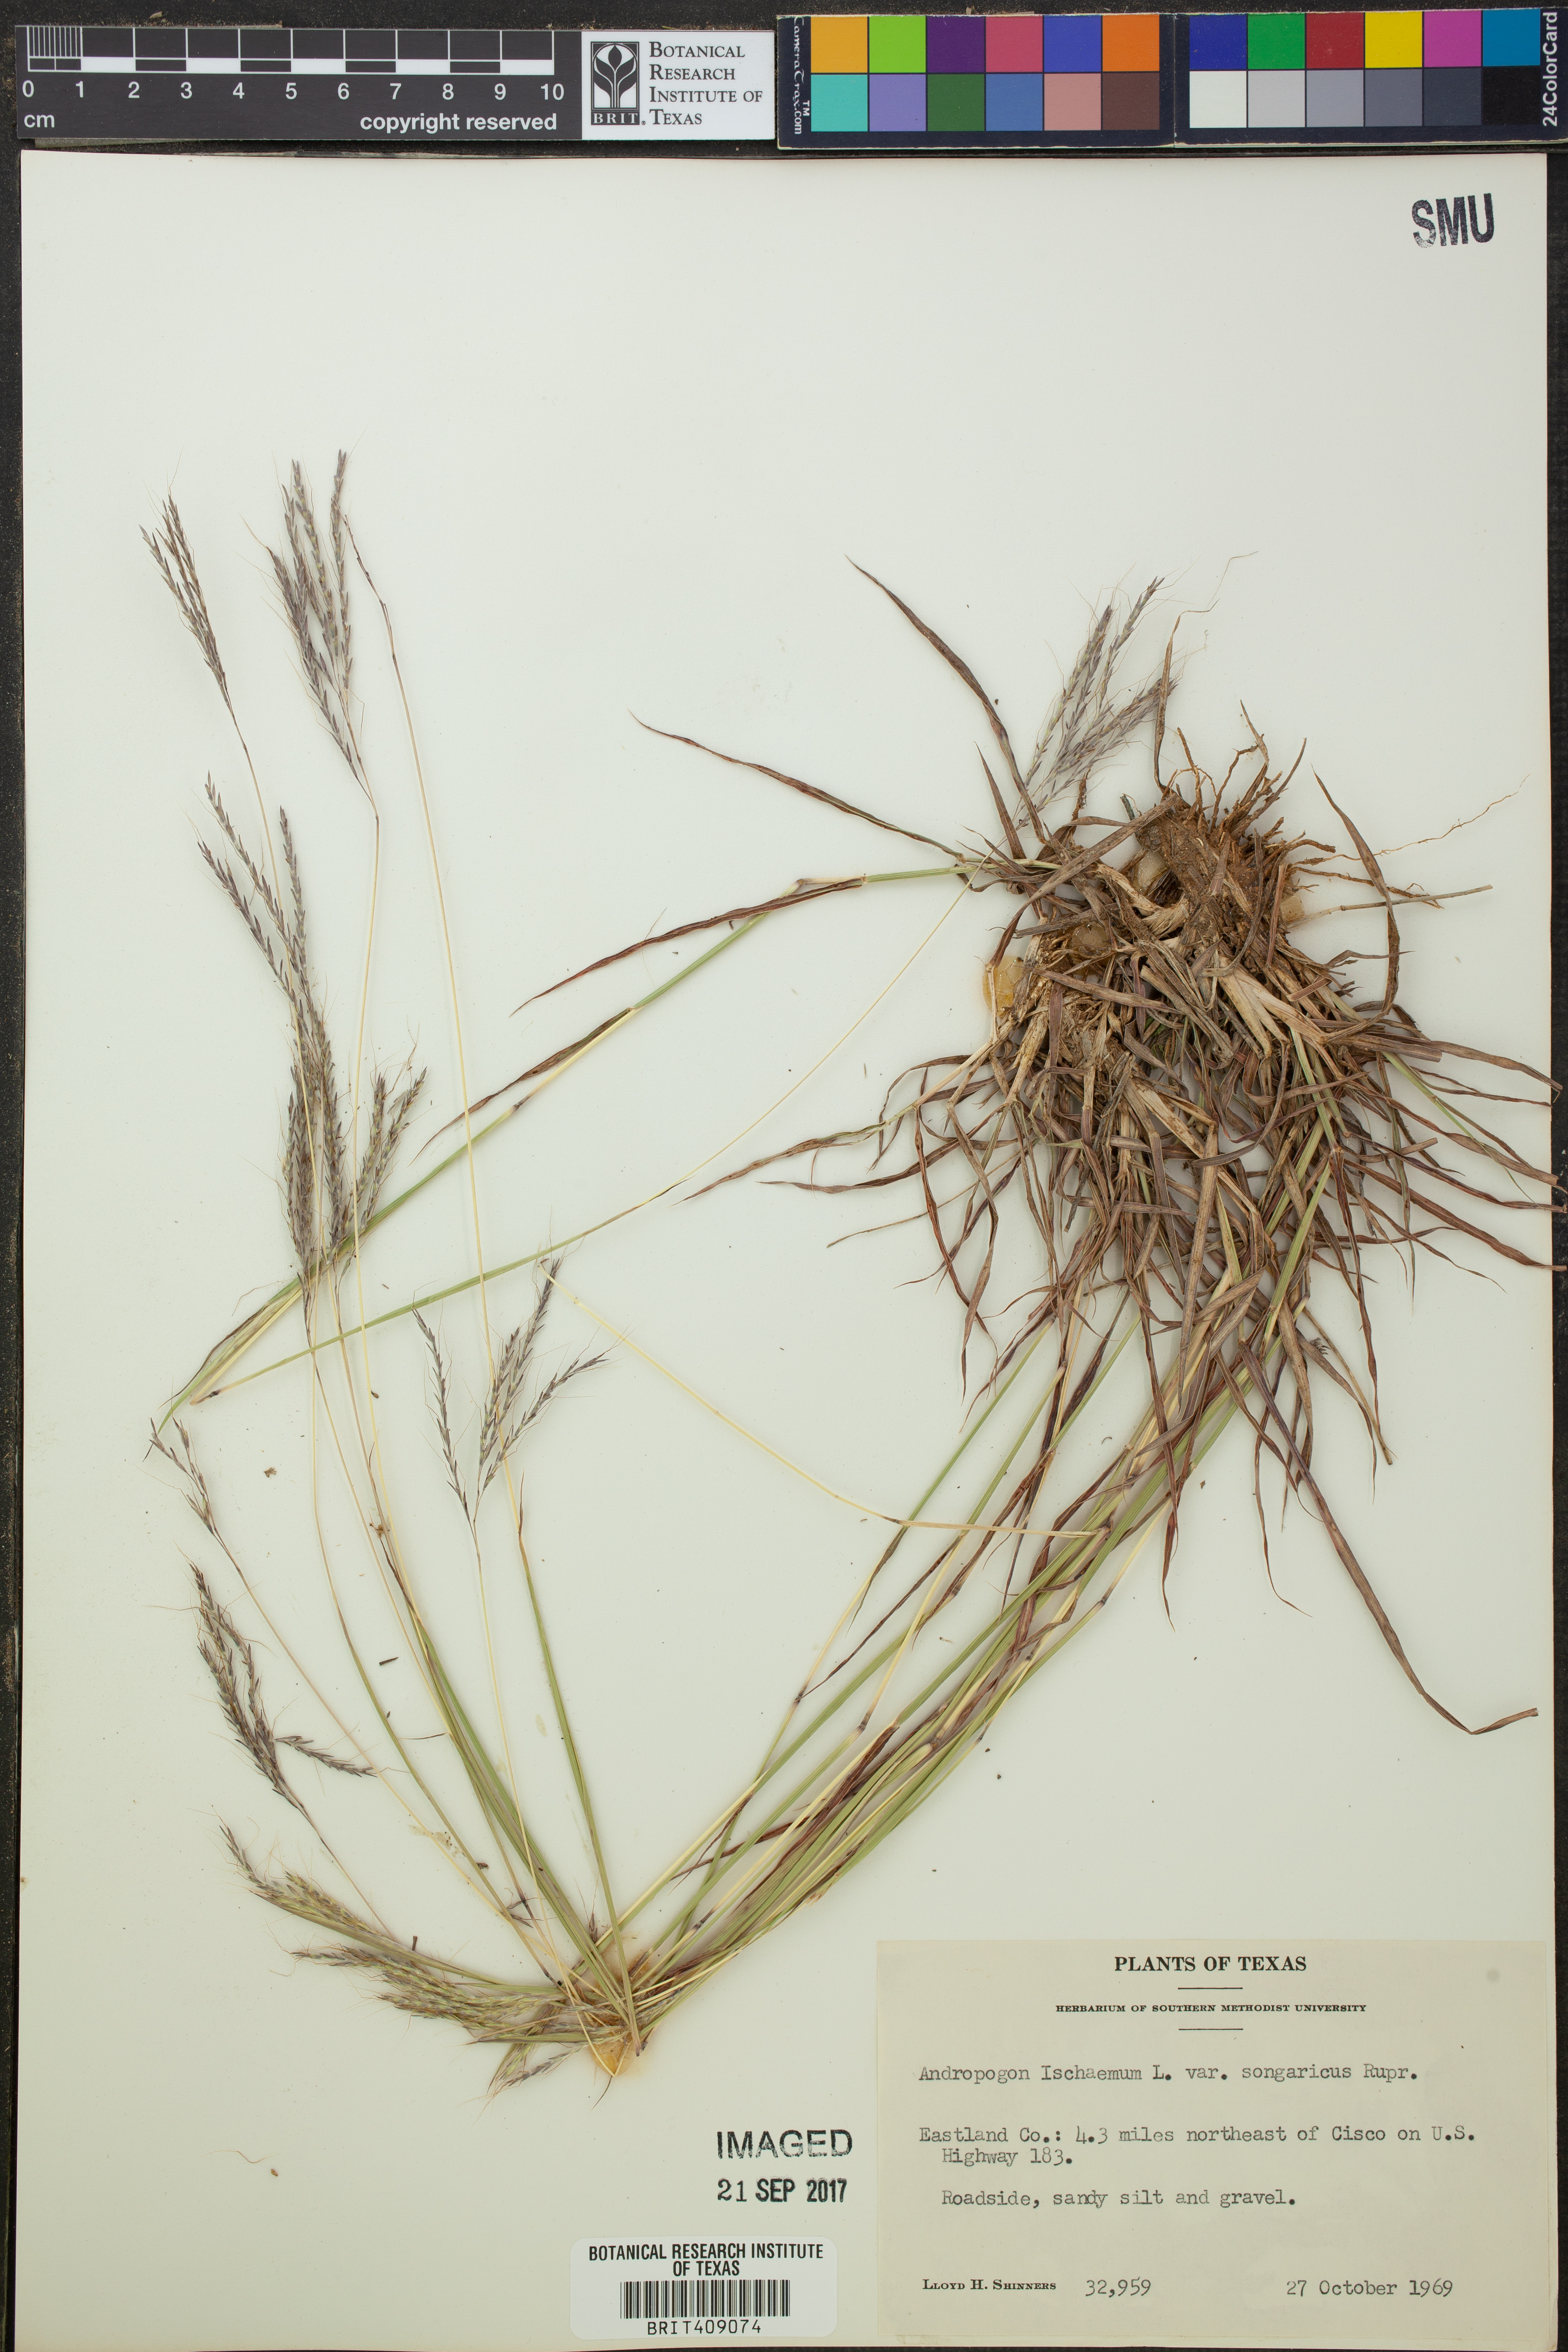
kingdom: Plantae
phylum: Tracheophyta
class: Liliopsida
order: Poales
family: Poaceae
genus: Bothriochloa
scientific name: Bothriochloa ischaemum
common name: Yellow bluestem
